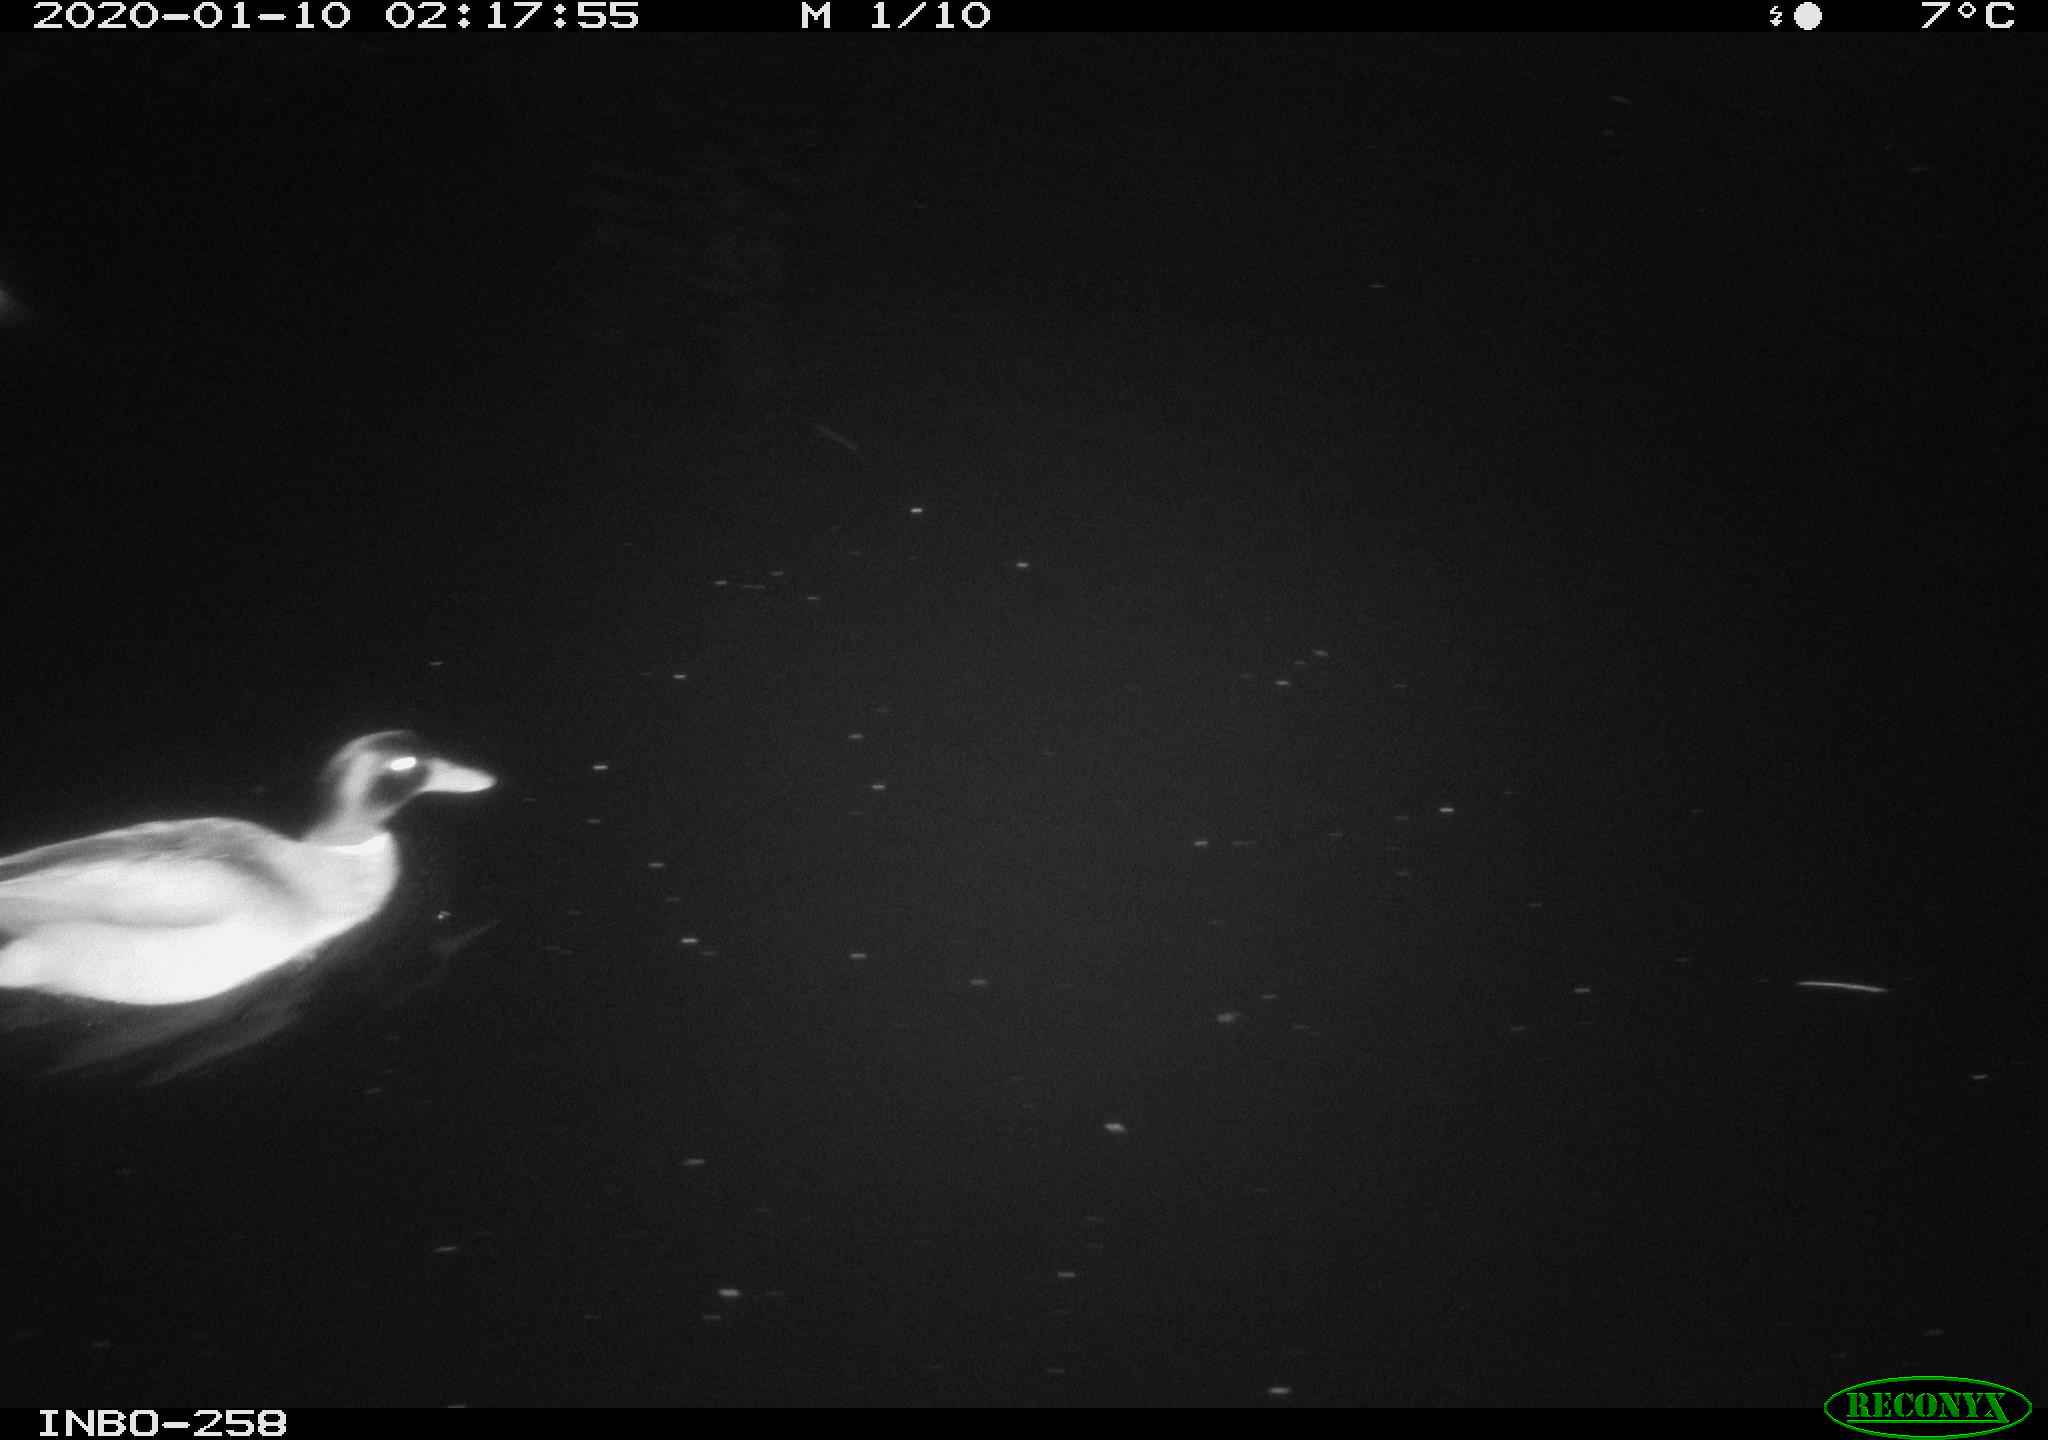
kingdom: Animalia
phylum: Chordata
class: Aves
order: Anseriformes
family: Anatidae
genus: Anas
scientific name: Anas platyrhynchos
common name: Mallard
